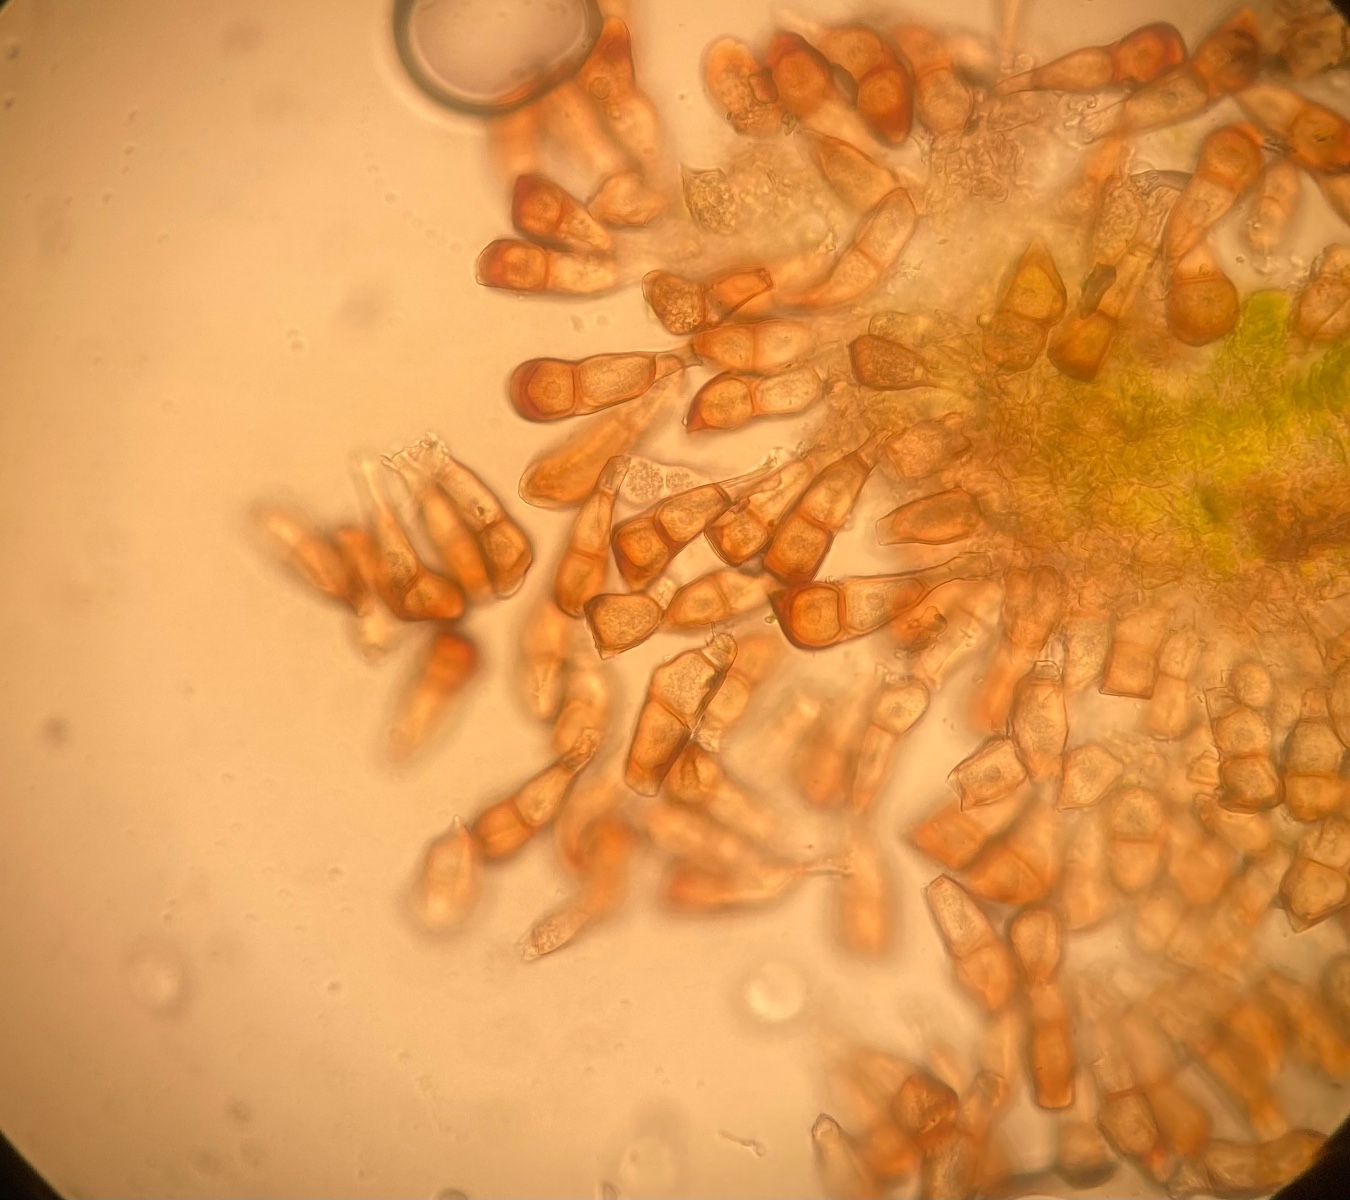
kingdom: Fungi
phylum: Basidiomycota
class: Pucciniomycetes
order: Pucciniales
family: Pucciniaceae
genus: Puccinia
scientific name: Puccinia polygoni-amphibii
